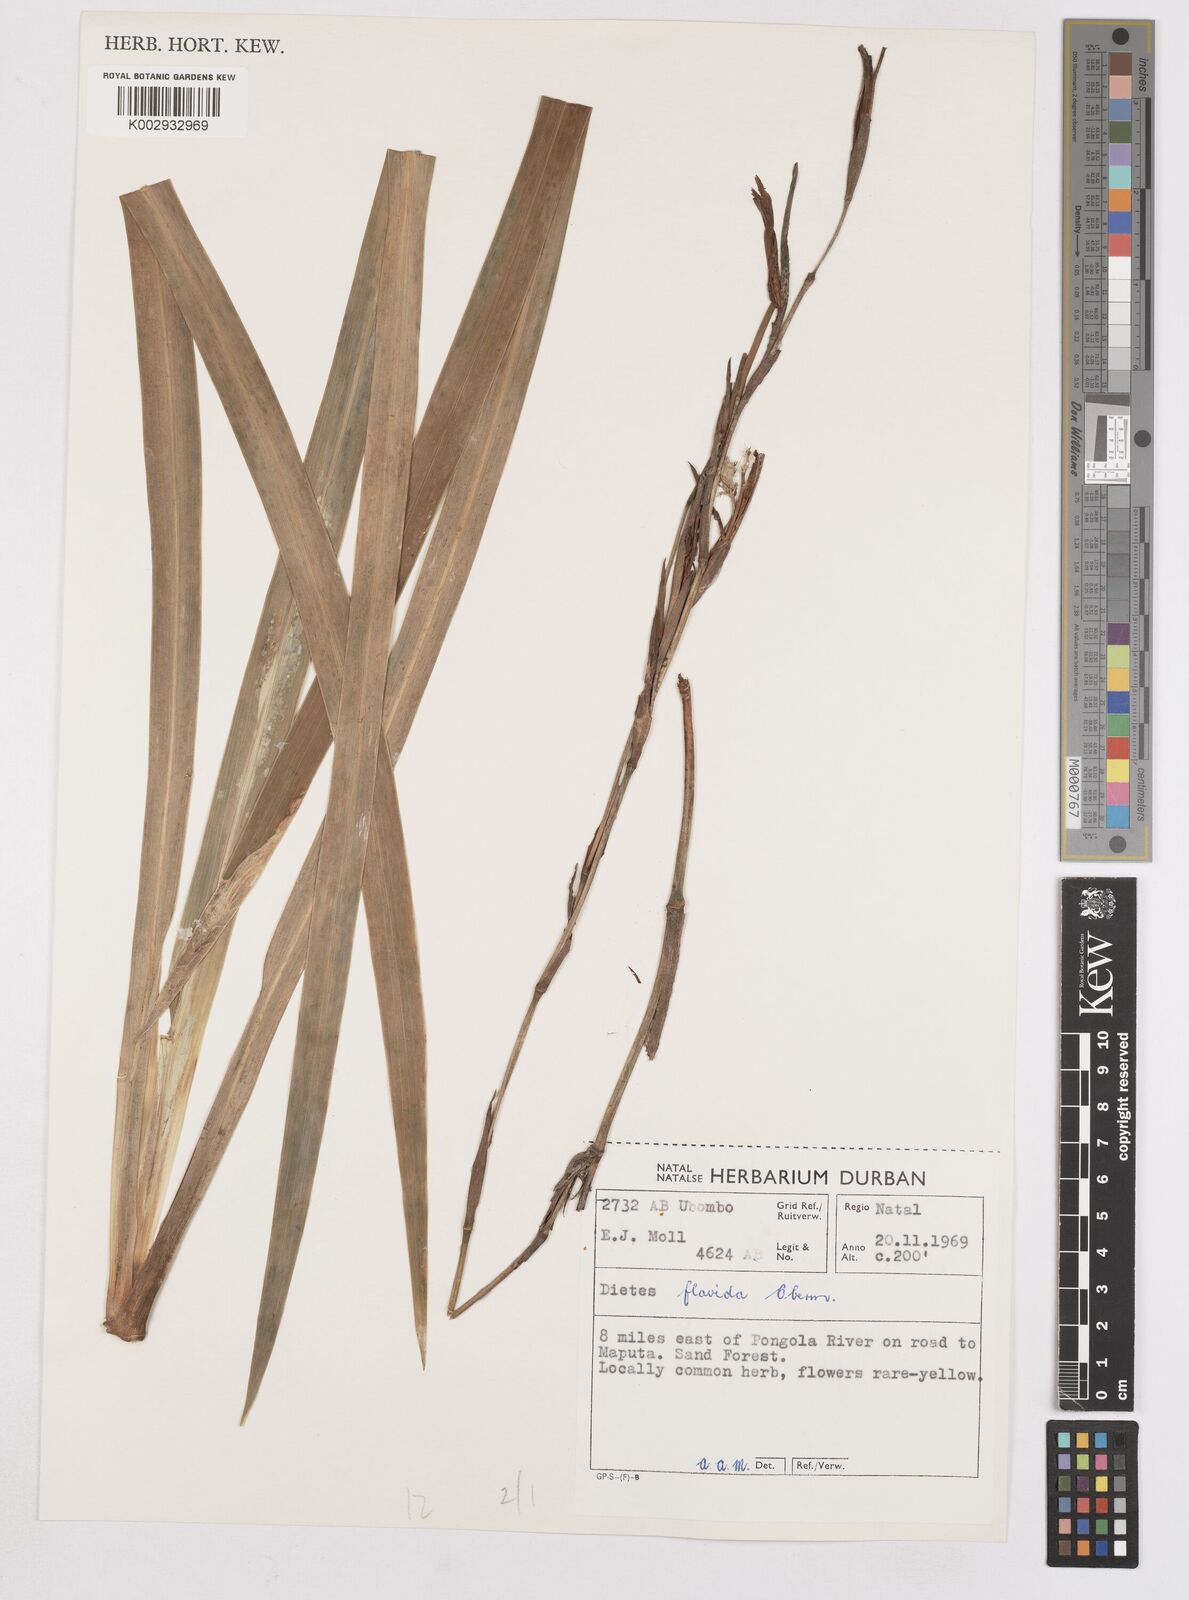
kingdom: Plantae
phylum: Tracheophyta
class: Liliopsida
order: Asparagales
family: Iridaceae
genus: Dietes
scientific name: Dietes flavida
